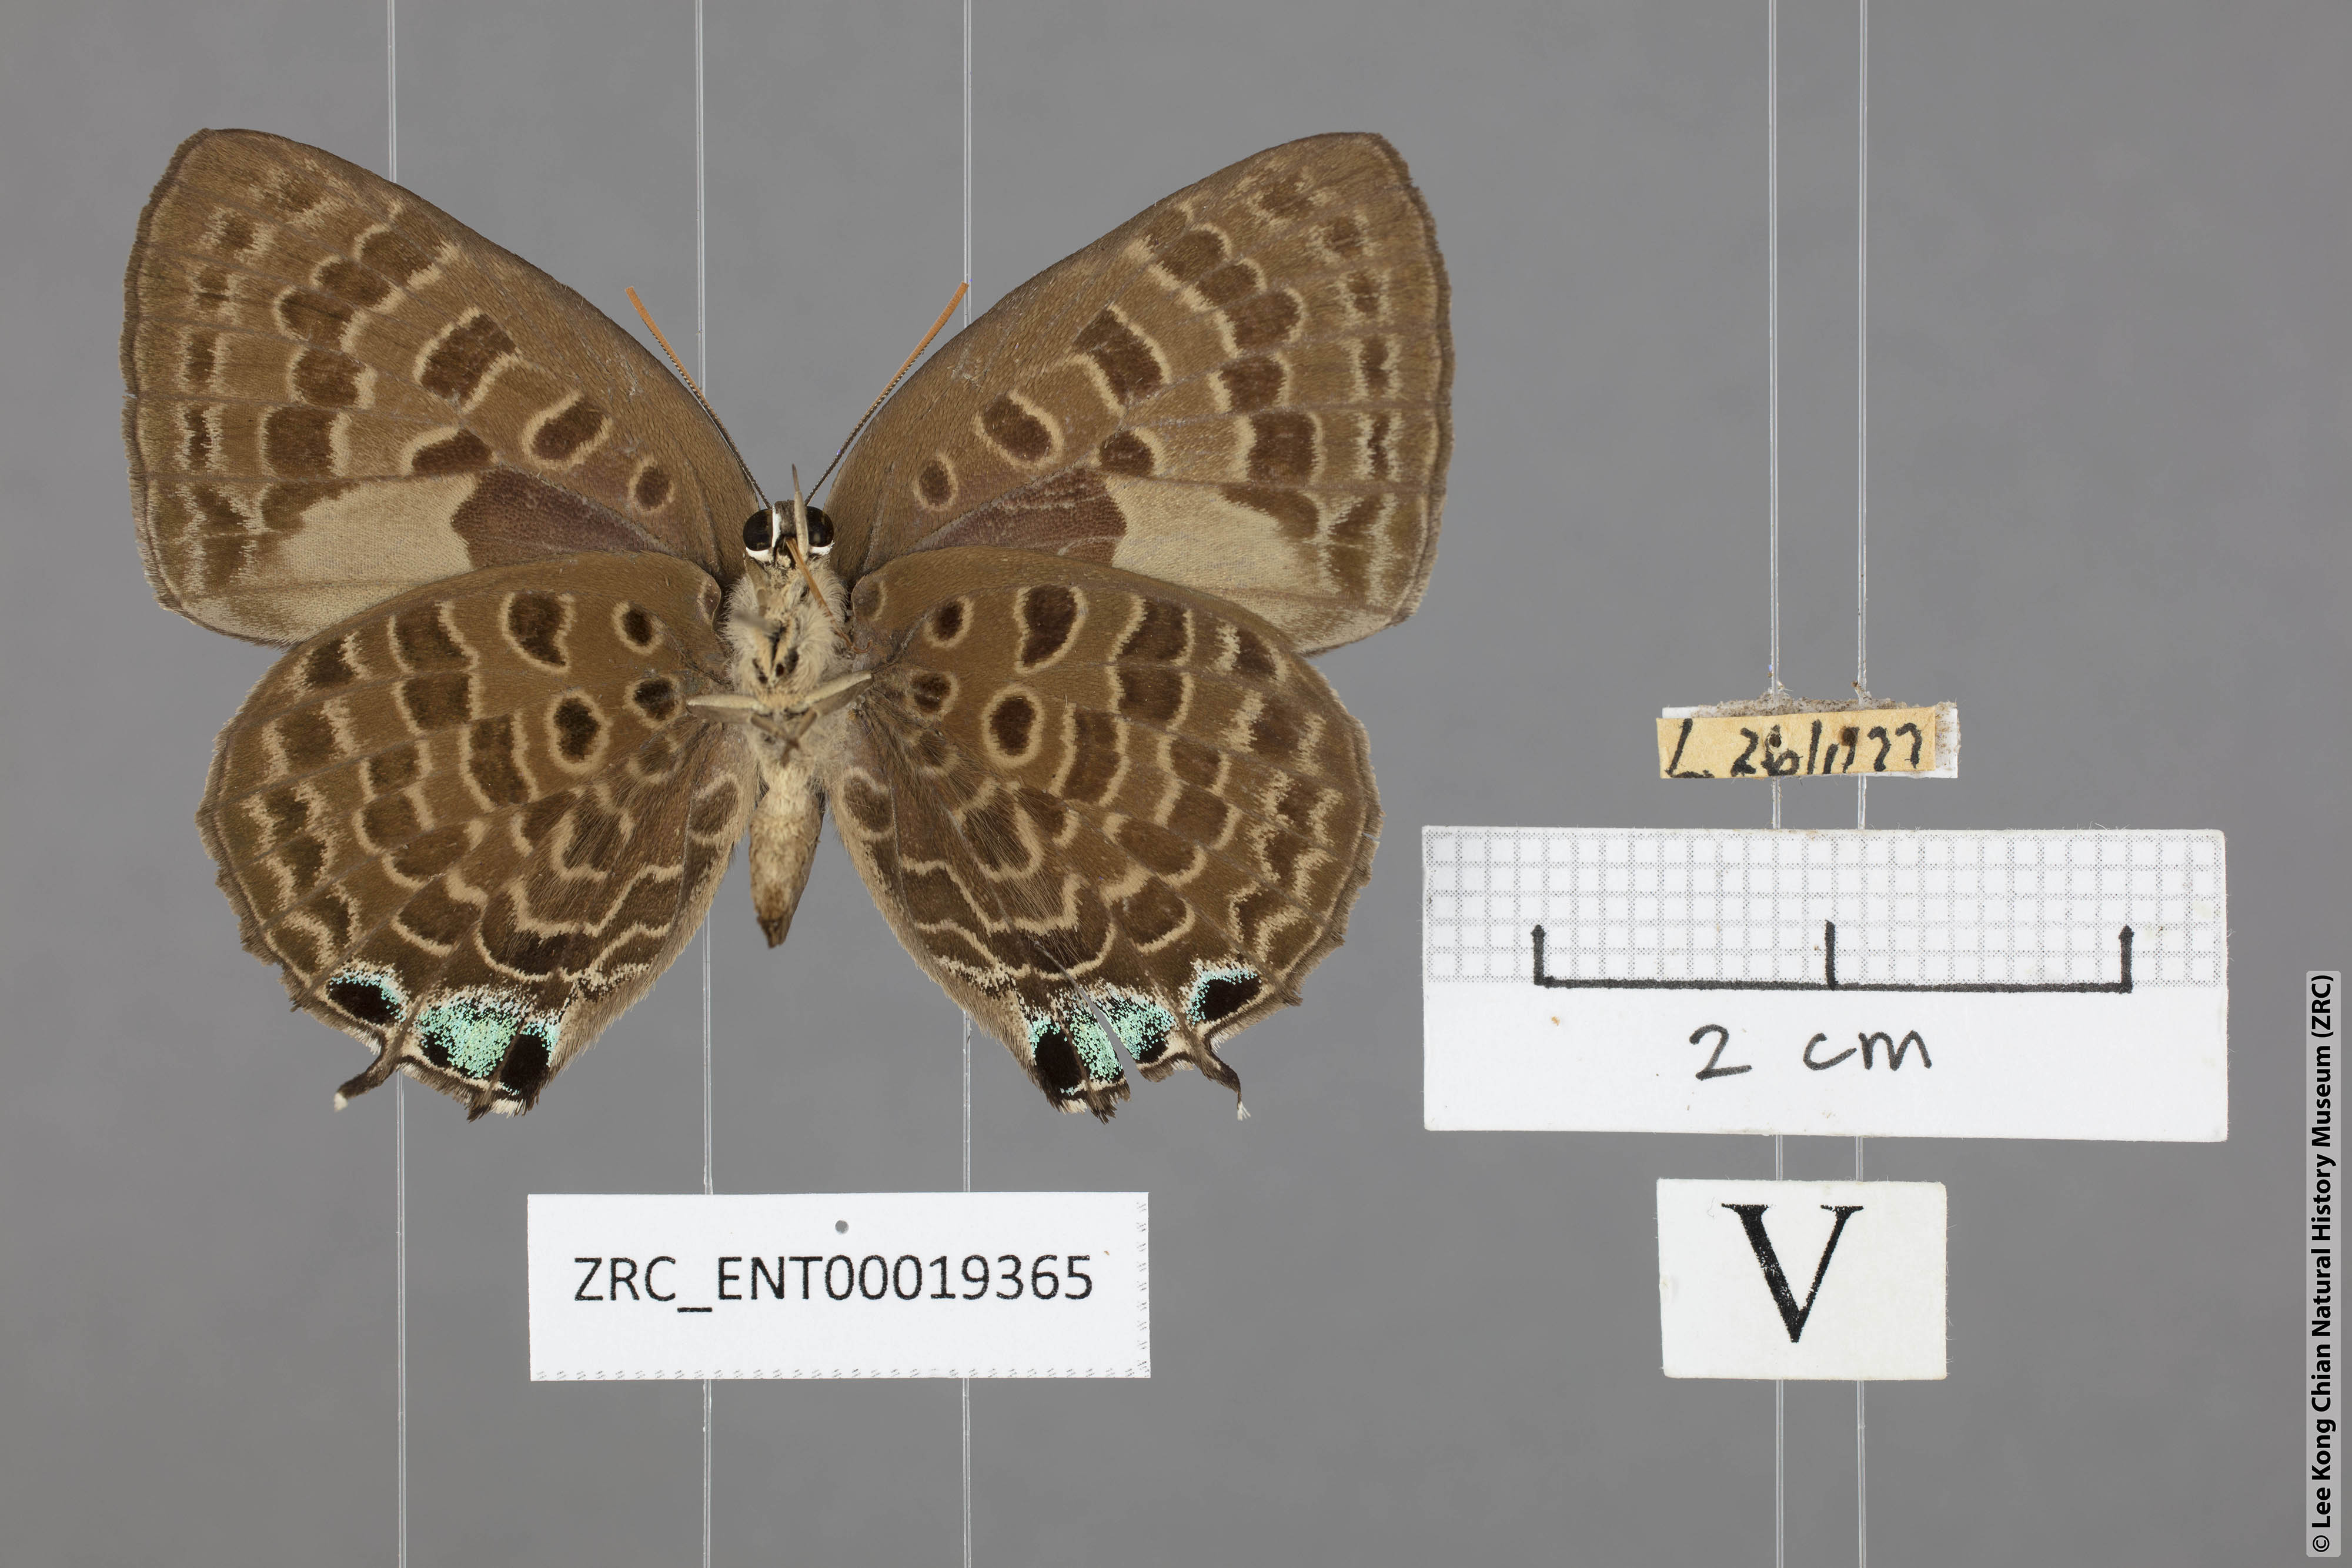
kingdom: Animalia
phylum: Arthropoda
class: Insecta
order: Lepidoptera
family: Lycaenidae
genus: Arhopala
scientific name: Arhopala corinda
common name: Ultramarine oakblue
